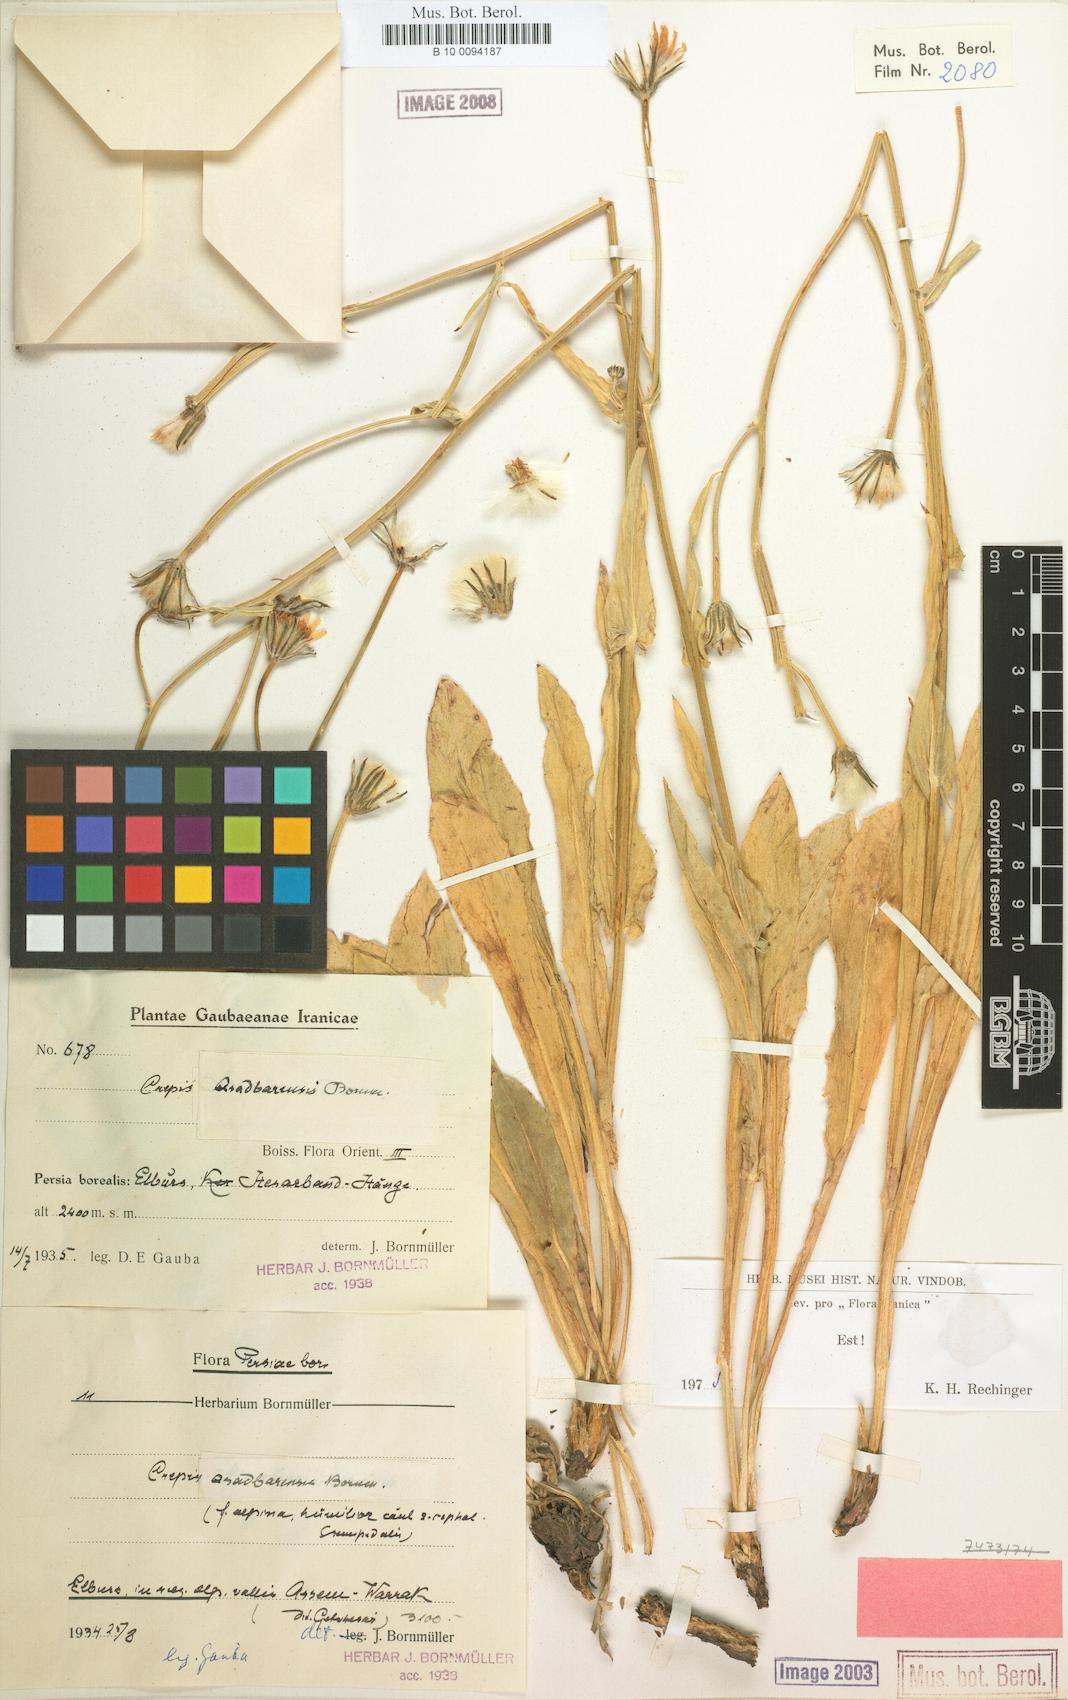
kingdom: Plantae
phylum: Tracheophyta
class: Magnoliopsida
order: Asterales
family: Asteraceae
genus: Crepis
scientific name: Crepis asadbarensis
